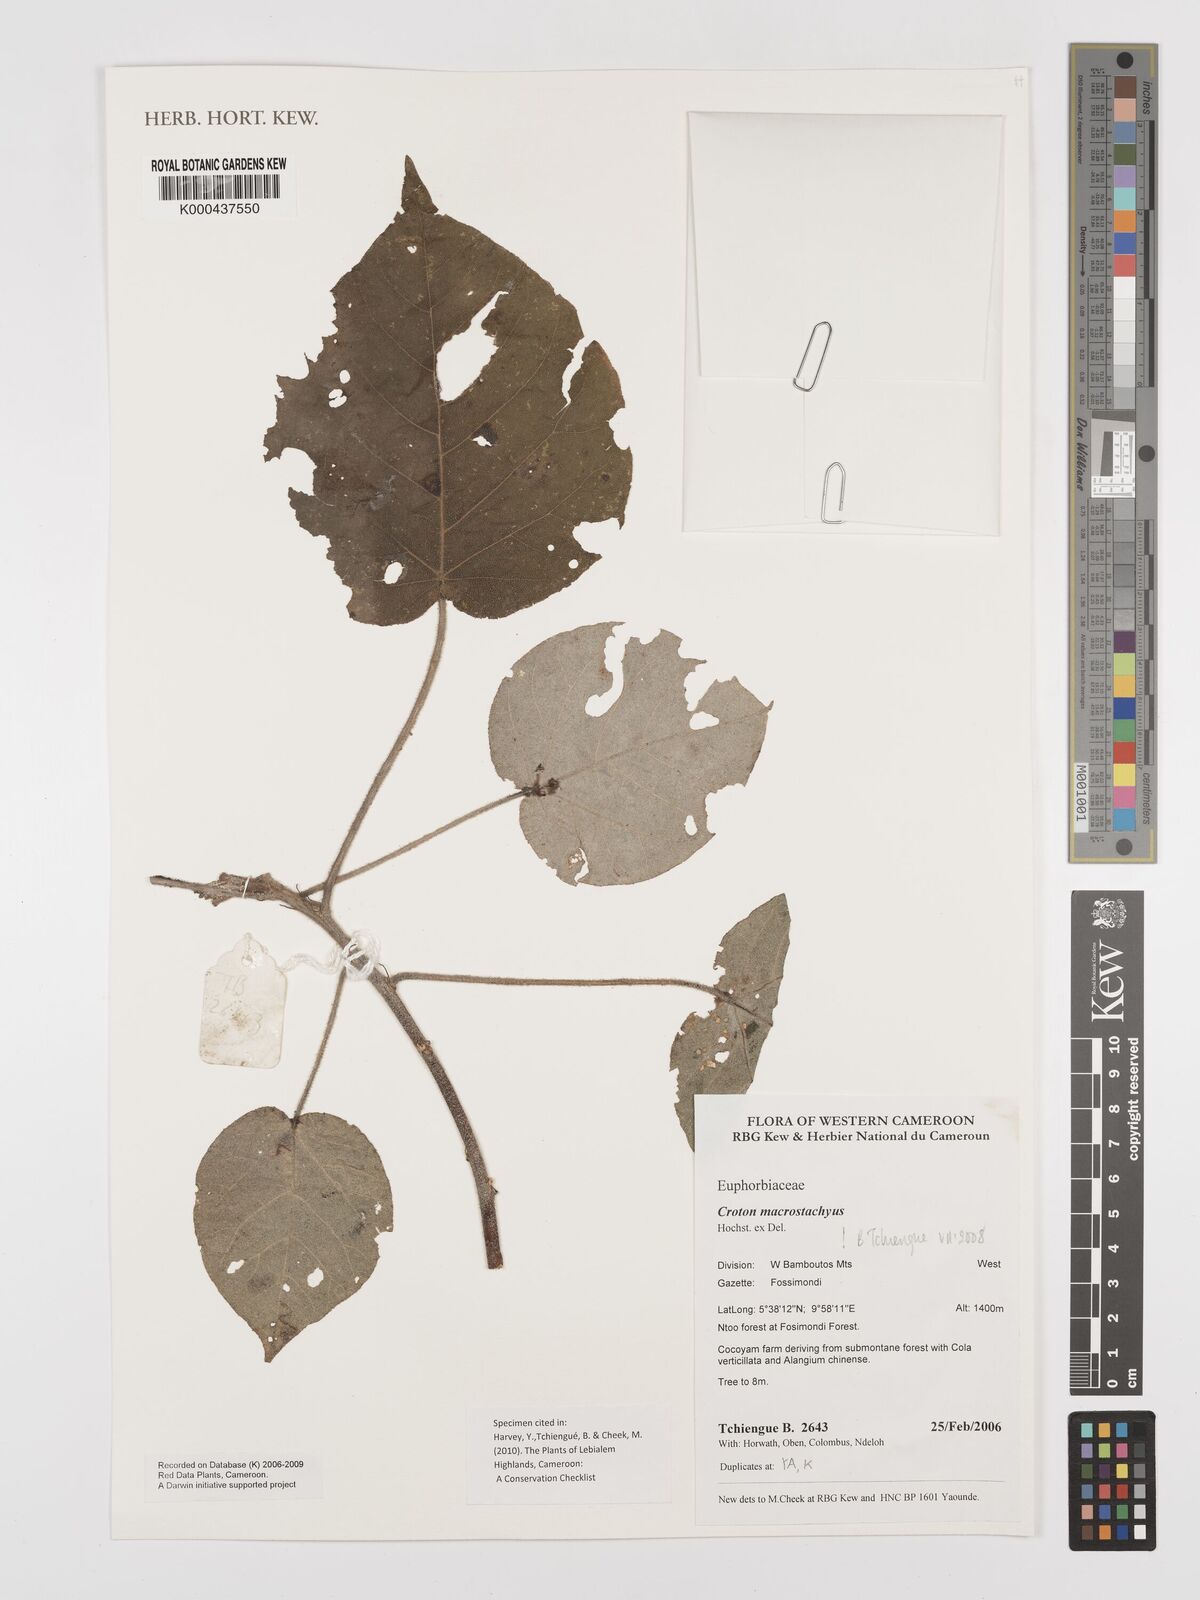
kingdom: Plantae
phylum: Tracheophyta
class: Magnoliopsida
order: Malpighiales
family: Euphorbiaceae
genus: Croton
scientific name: Croton macrostachyus
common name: Mutundu
